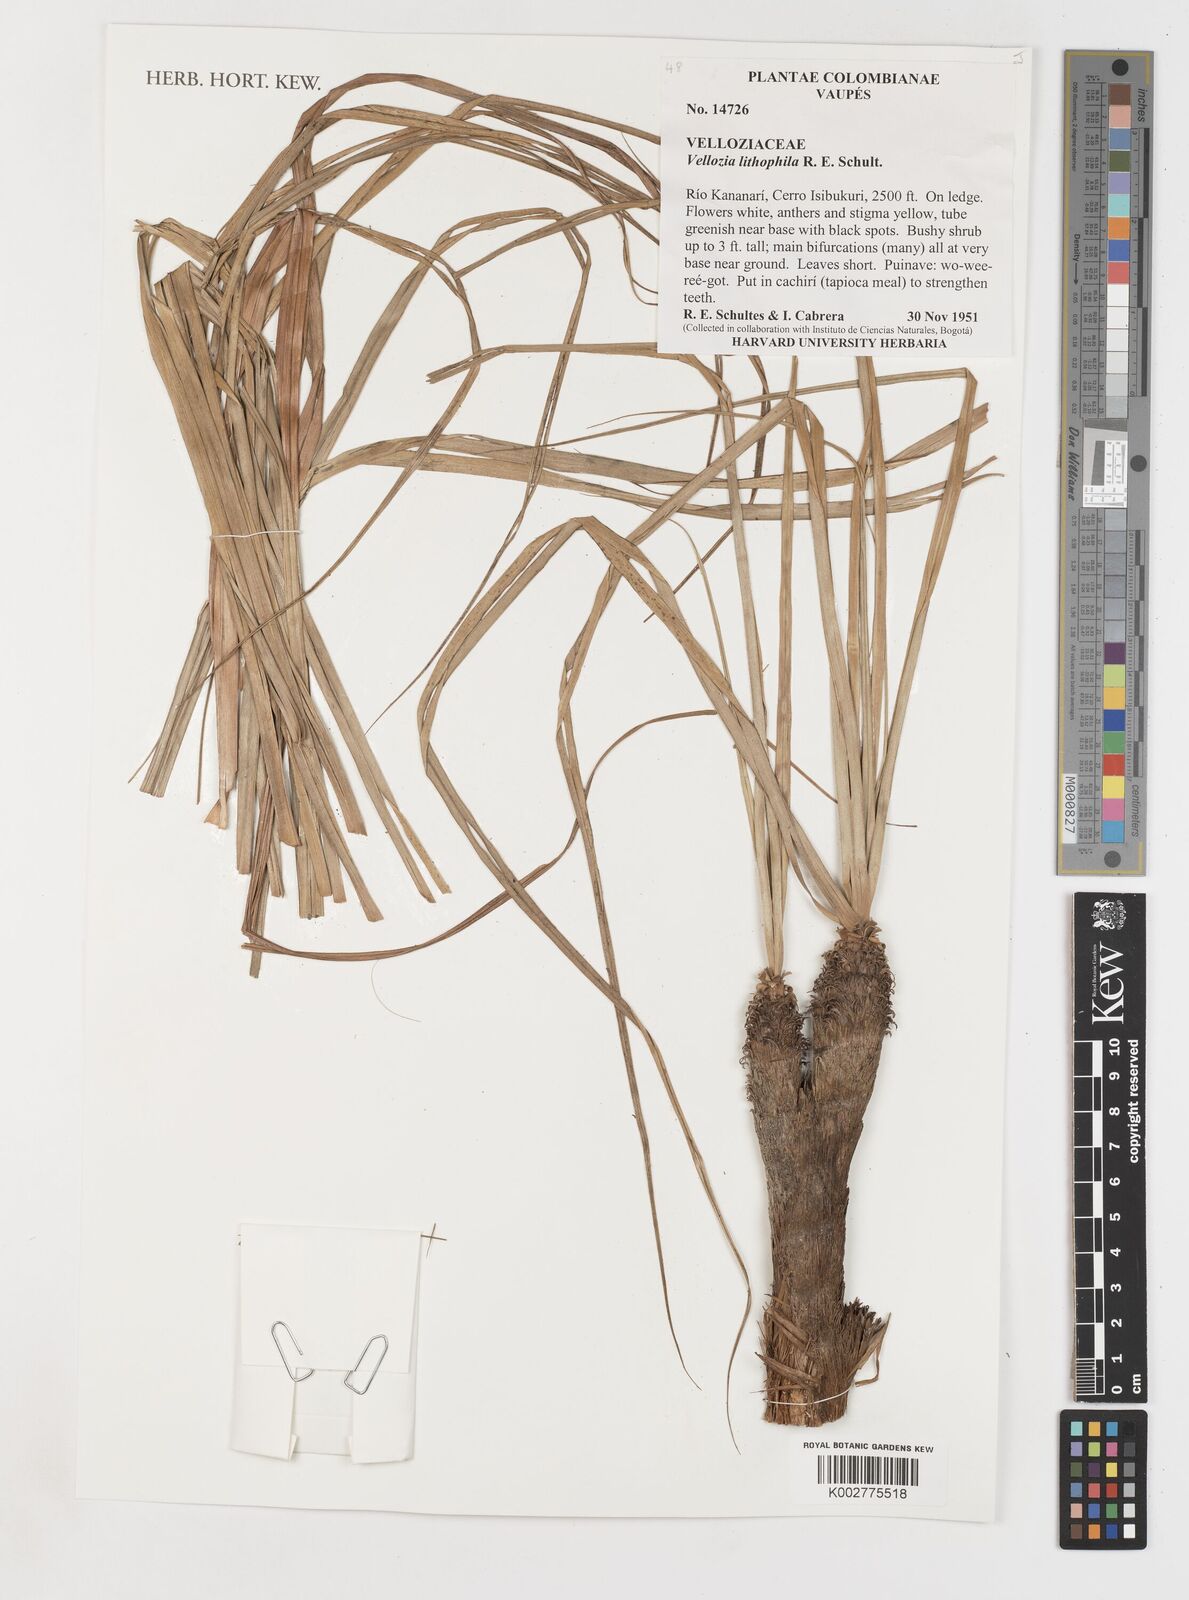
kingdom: Plantae
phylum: Tracheophyta
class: Liliopsida
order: Pandanales
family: Velloziaceae
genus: Vellozia
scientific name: Vellozia tubiflora
